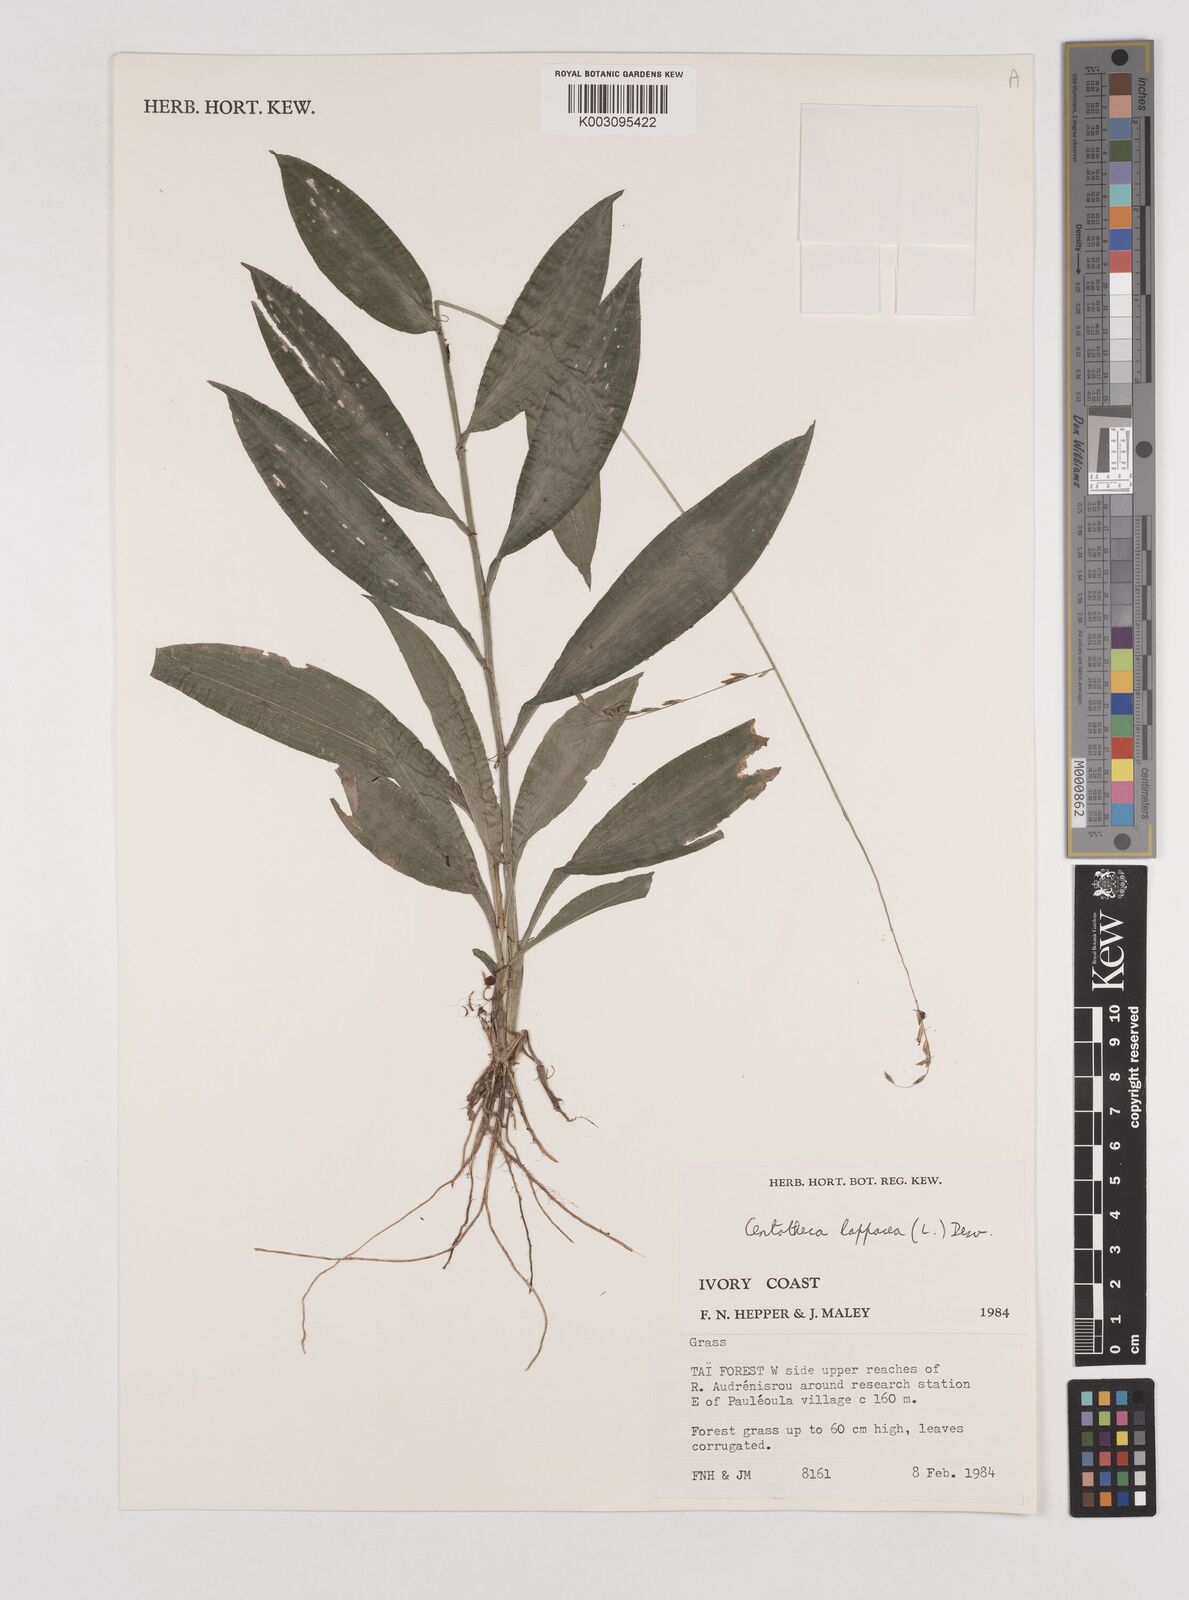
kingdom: Plantae
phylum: Tracheophyta
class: Liliopsida
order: Poales
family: Poaceae
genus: Centotheca
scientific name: Centotheca lappacea
